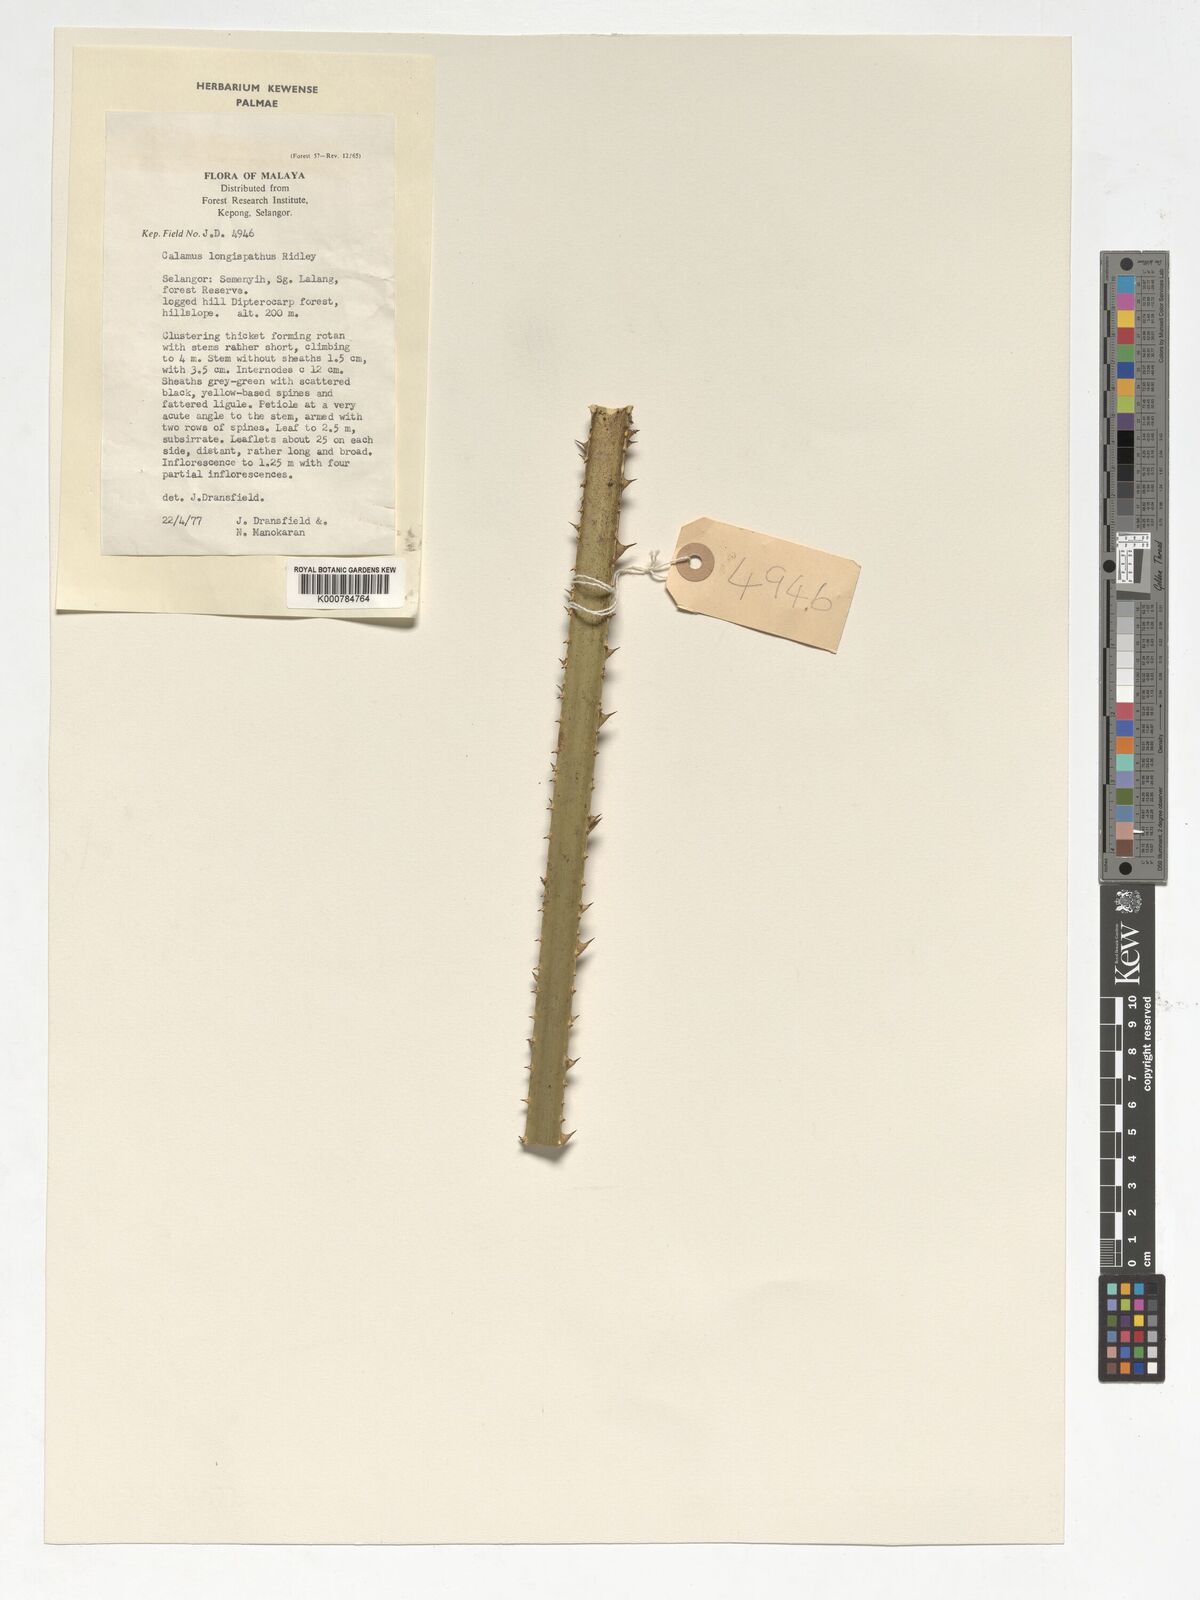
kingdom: Plantae
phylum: Tracheophyta
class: Liliopsida
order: Arecales
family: Arecaceae
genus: Calamus
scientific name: Calamus longispatha
